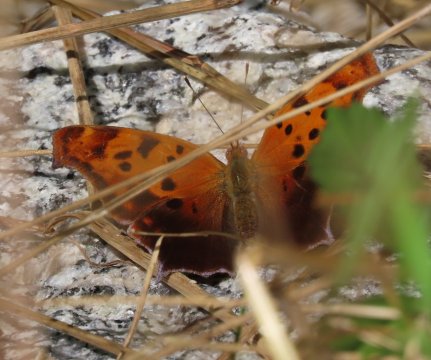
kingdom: Animalia
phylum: Arthropoda
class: Insecta
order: Lepidoptera
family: Nymphalidae
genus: Polygonia
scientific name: Polygonia interrogationis
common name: Question Mark
